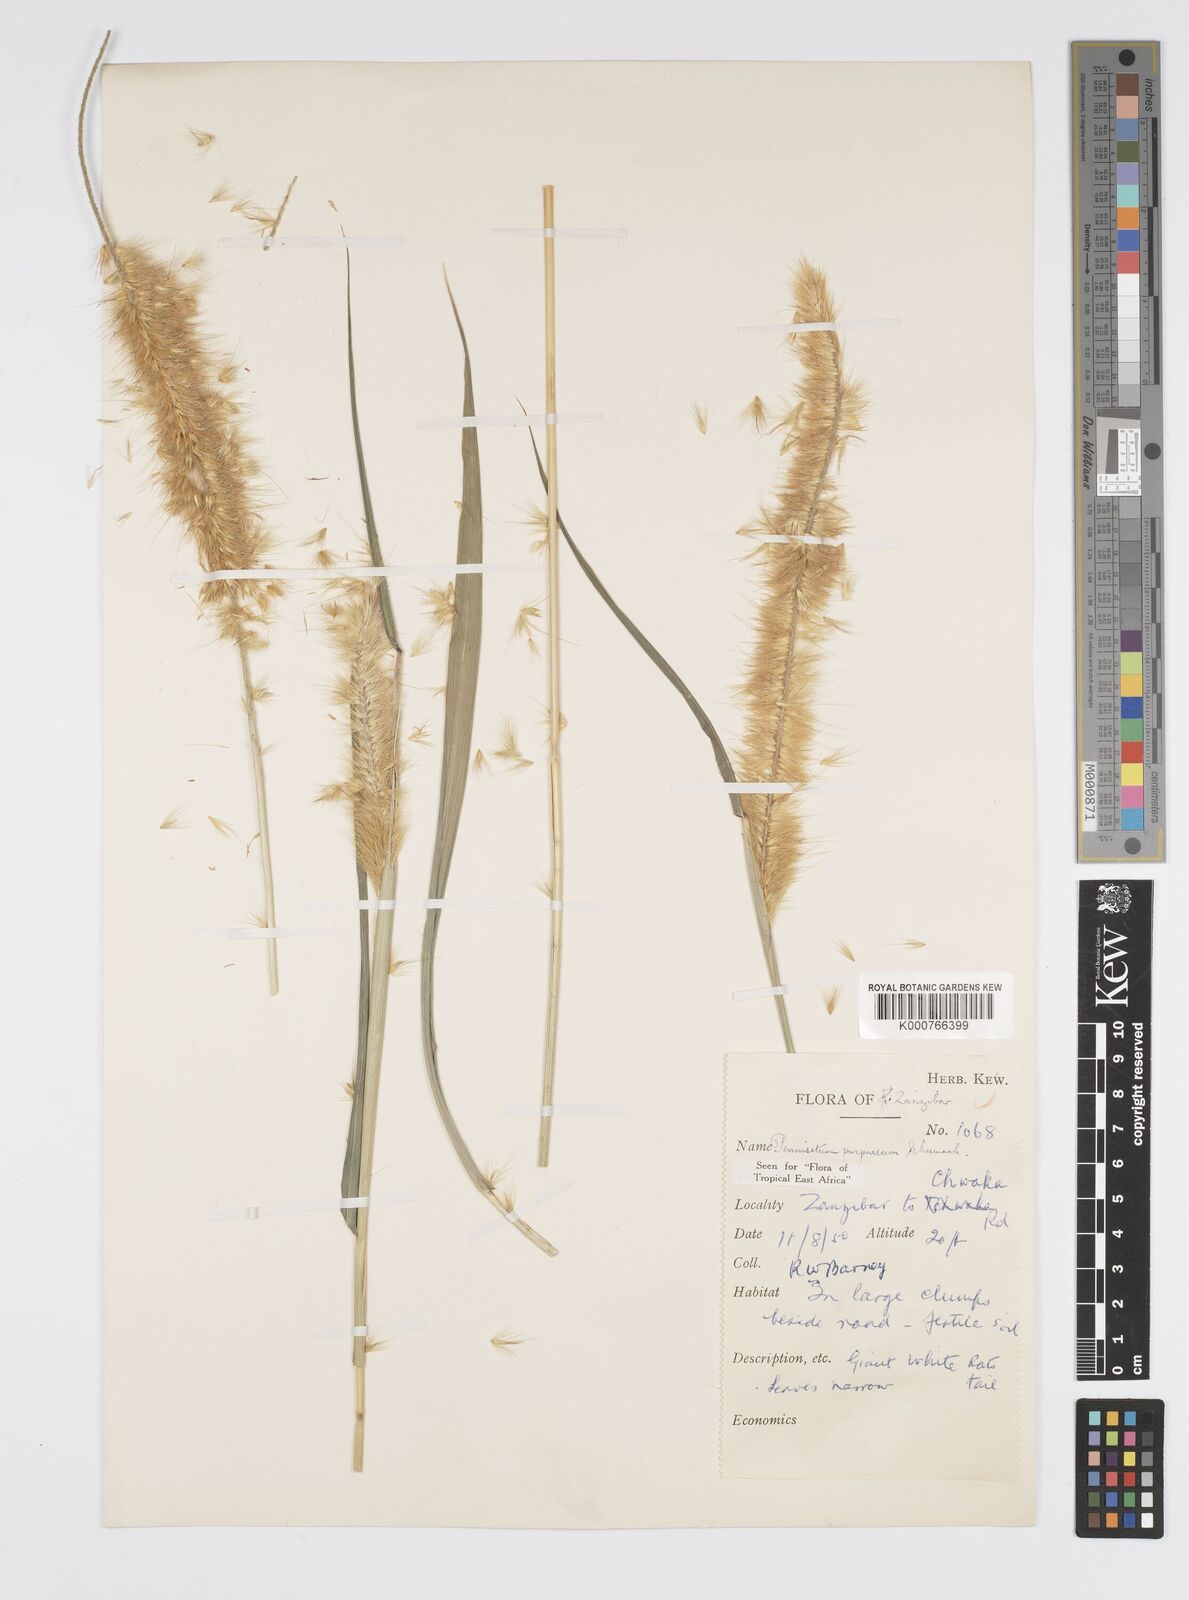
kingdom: Plantae
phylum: Tracheophyta
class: Liliopsida
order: Poales
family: Poaceae
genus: Cenchrus
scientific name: Cenchrus purpureus
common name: Elephant grass
